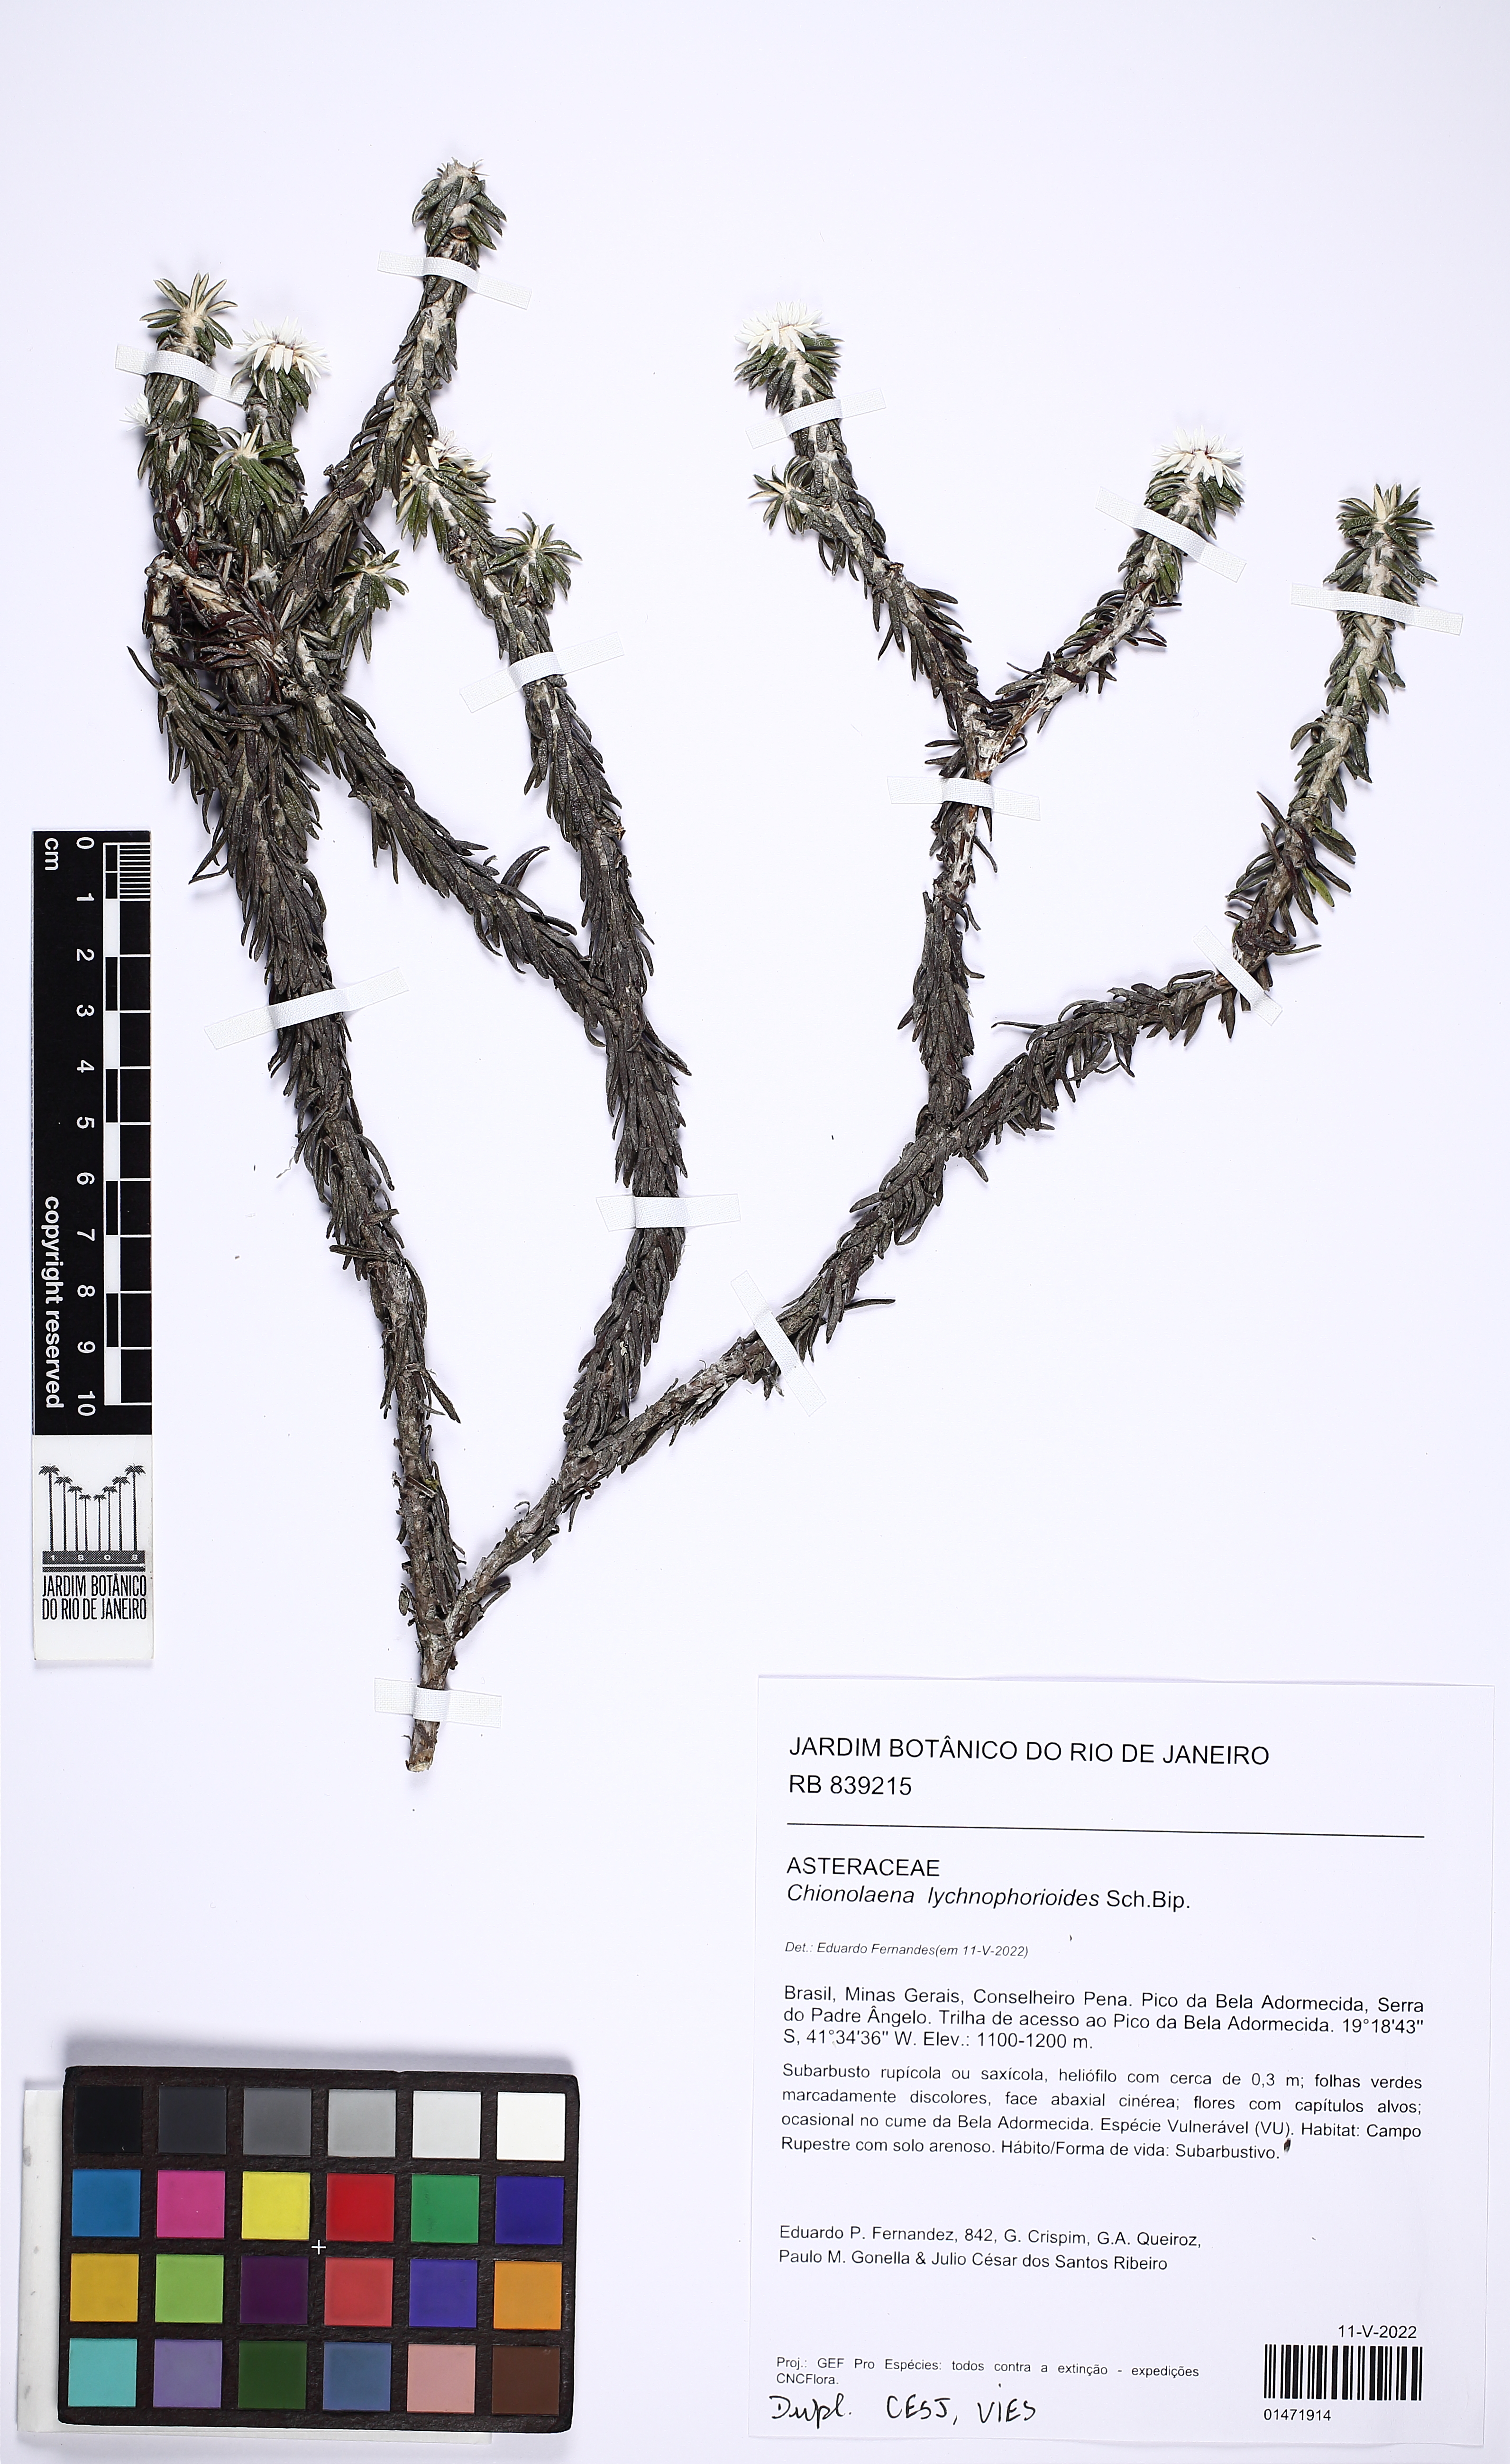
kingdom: Plantae
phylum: Tracheophyta
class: Magnoliopsida
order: Asterales
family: Asteraceae
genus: Chionolaena
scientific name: Chionolaena lychnophorioides
